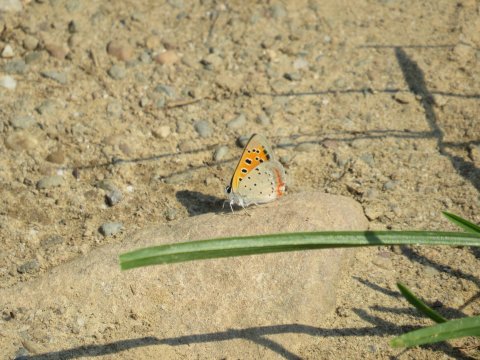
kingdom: Animalia
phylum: Arthropoda
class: Insecta
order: Lepidoptera
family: Lycaenidae
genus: Lycaena
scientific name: Lycaena phlaeas
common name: American Copper
